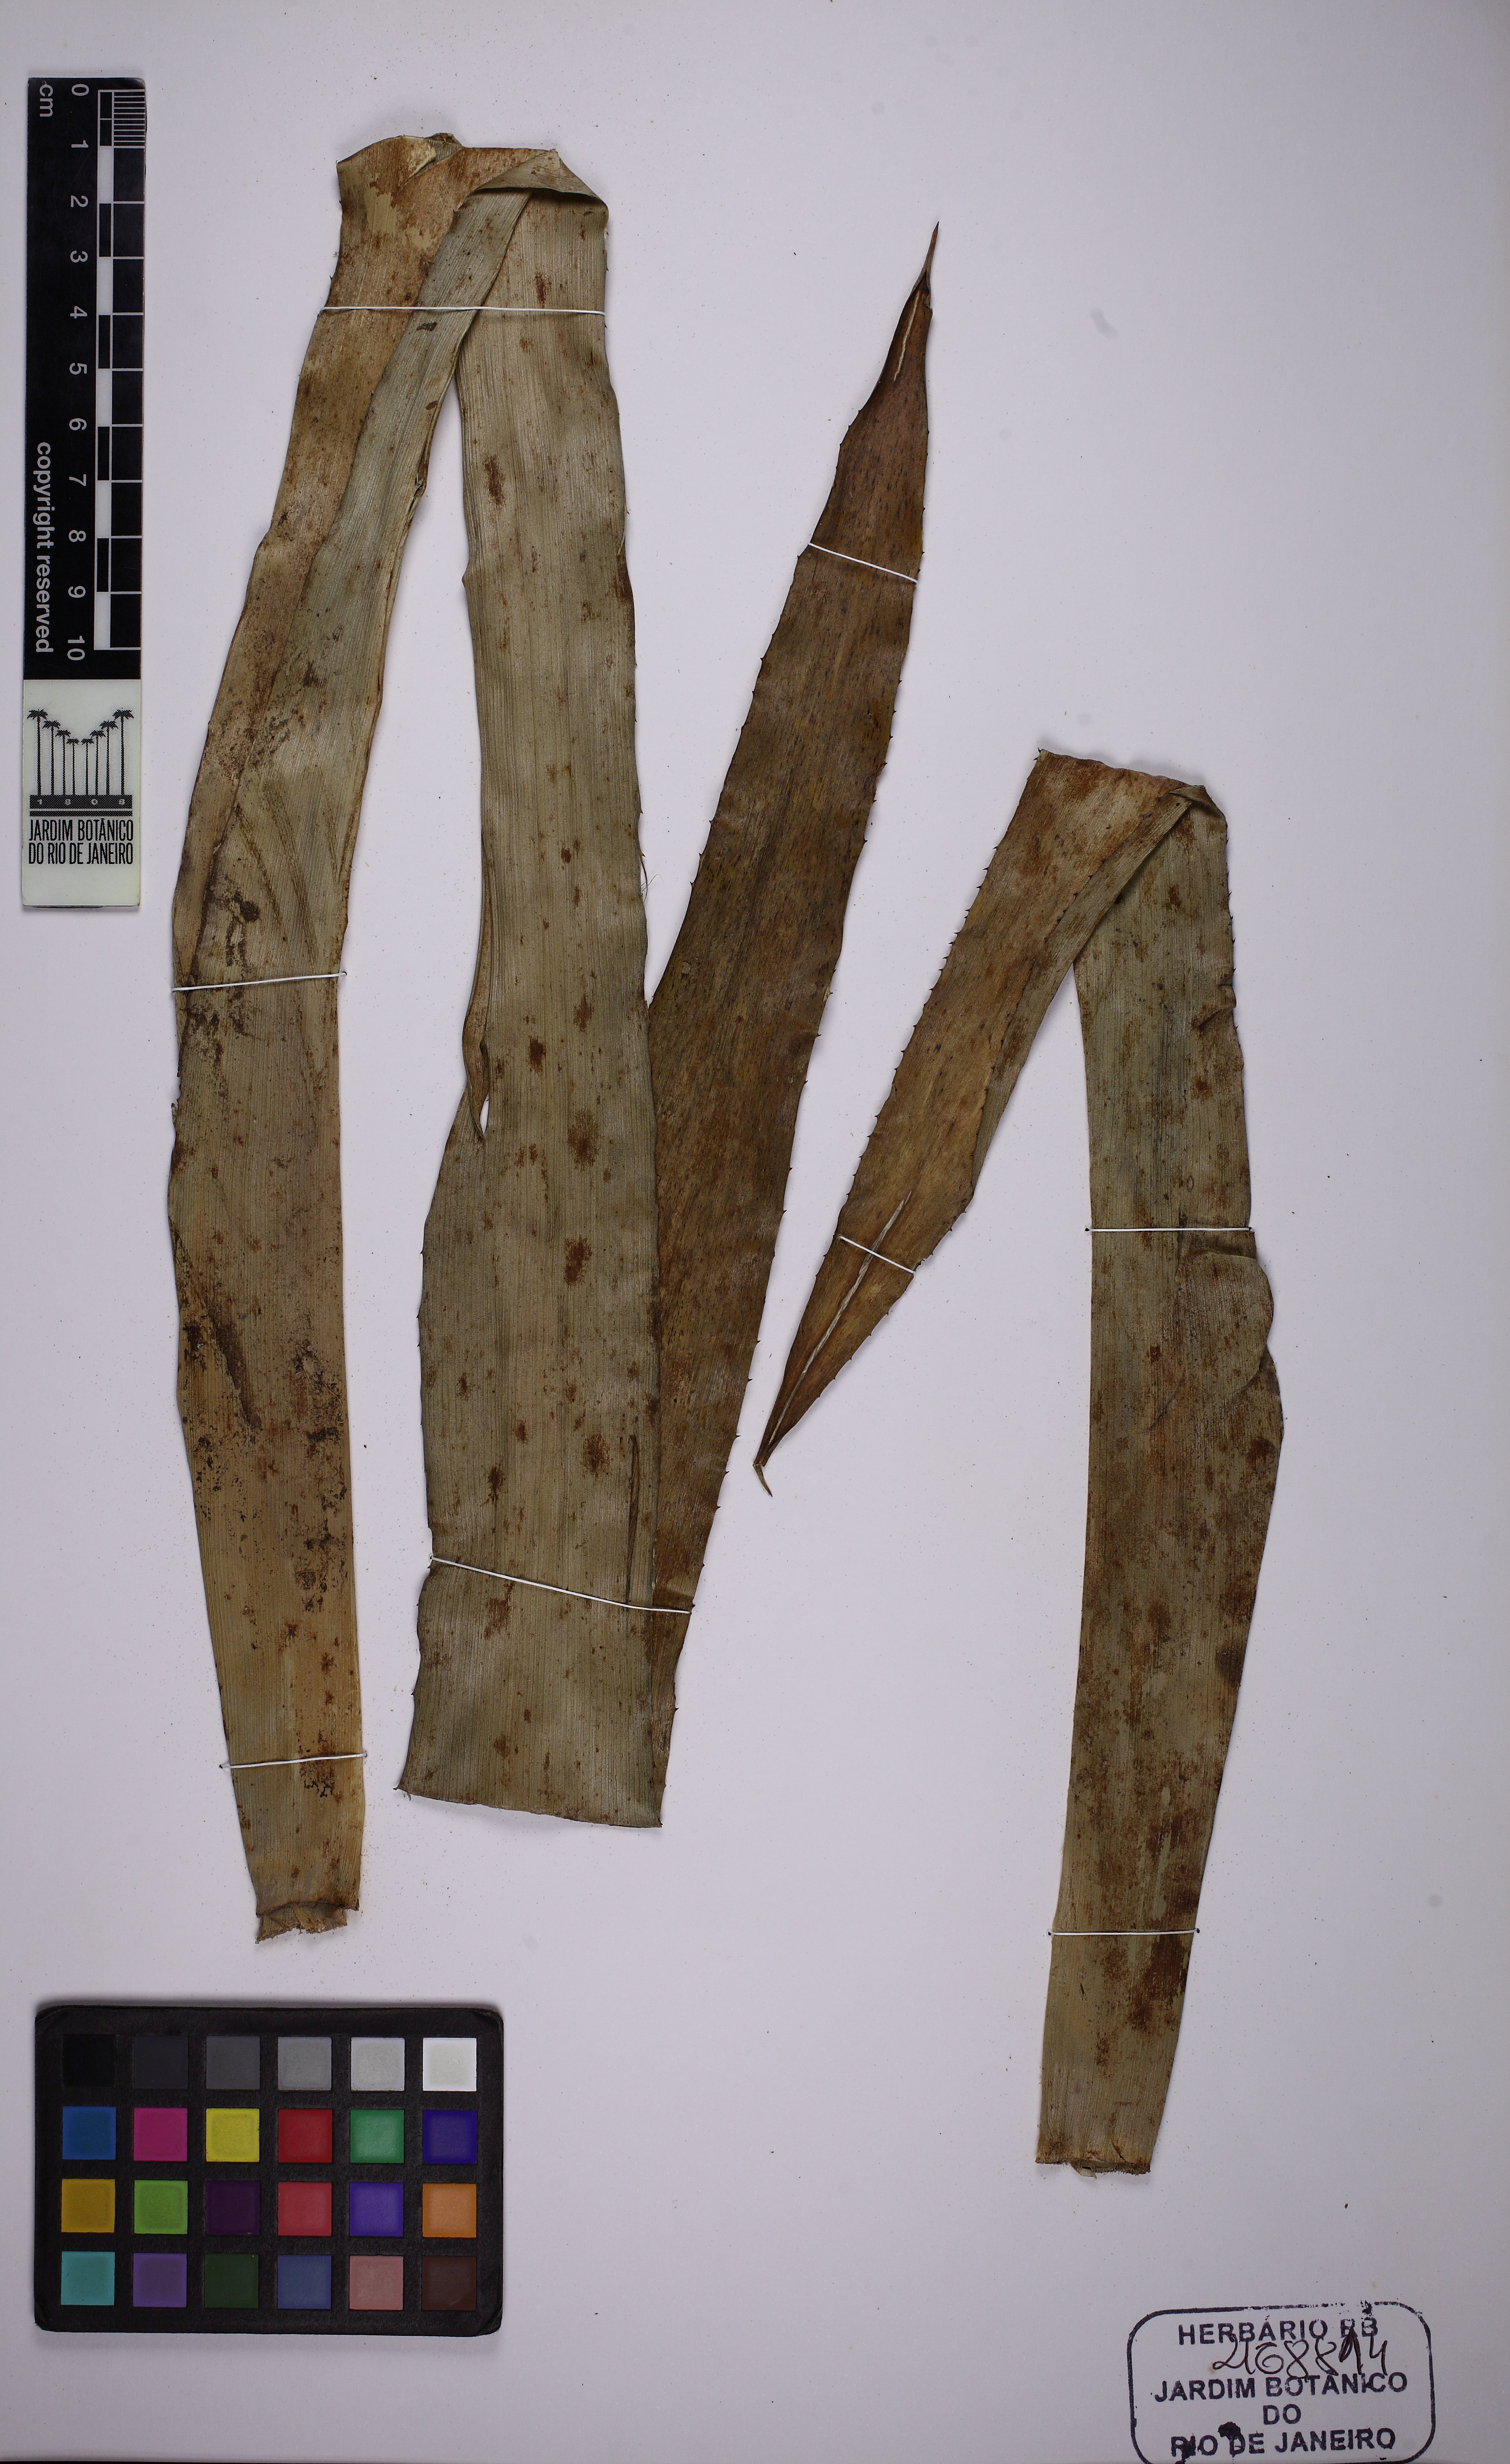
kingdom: Plantae
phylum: Tracheophyta
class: Liliopsida
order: Poales
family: Bromeliaceae
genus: Quesnelia
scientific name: Quesnelia strobilispica
